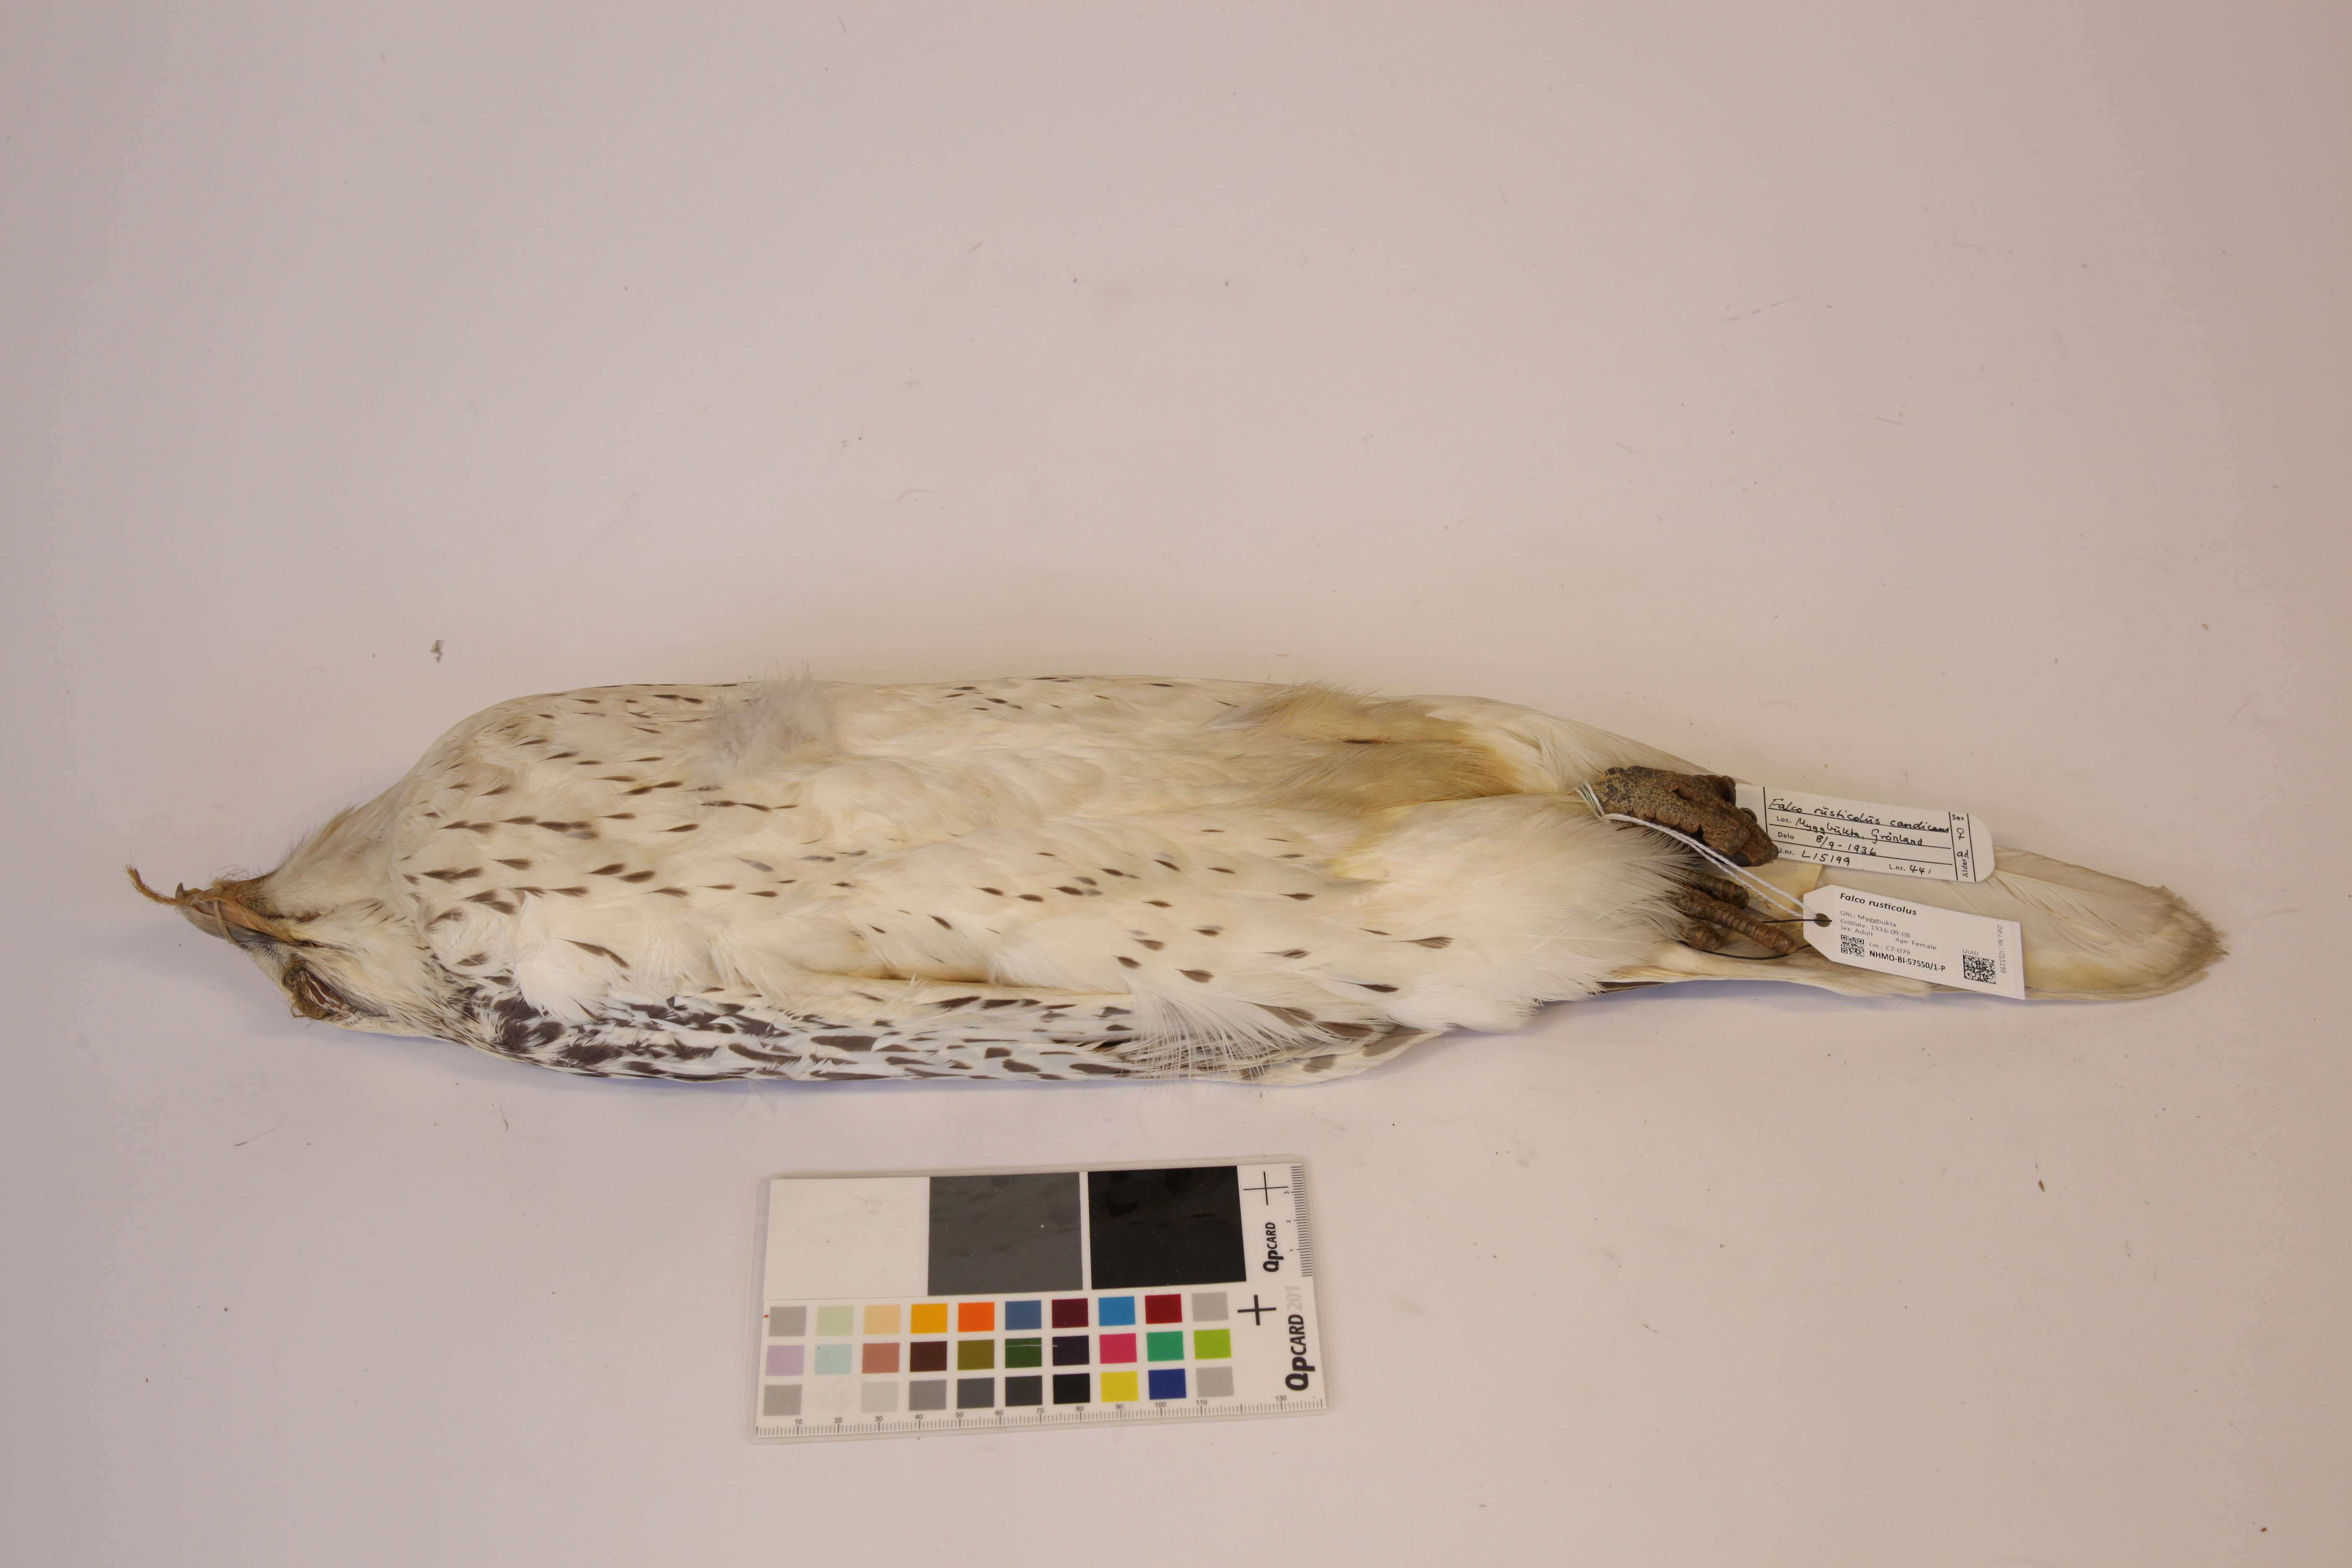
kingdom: Animalia
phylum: Chordata
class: Aves
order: Falconiformes
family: Falconidae
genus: Falco
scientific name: Falco rusticolus
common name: Gyrfalcon
